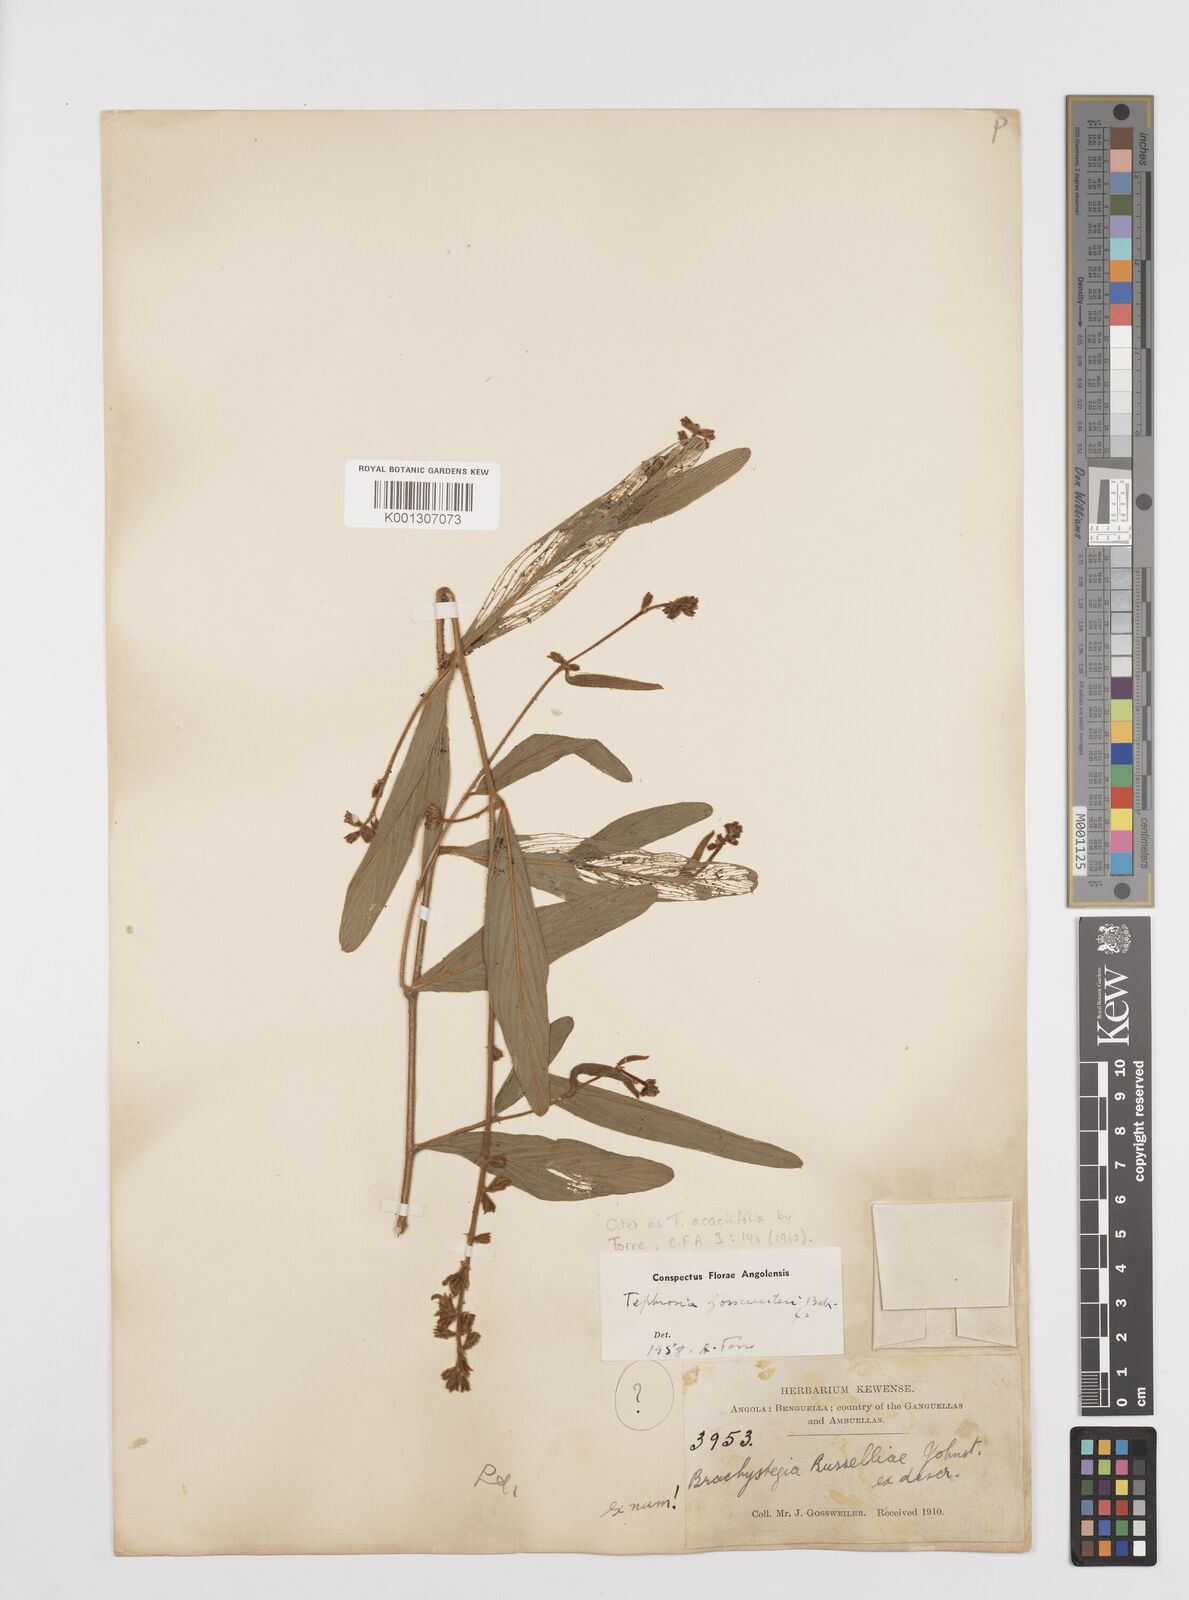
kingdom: Plantae
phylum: Tracheophyta
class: Magnoliopsida
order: Fabales
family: Fabaceae
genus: Tephrosia
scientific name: Tephrosia
